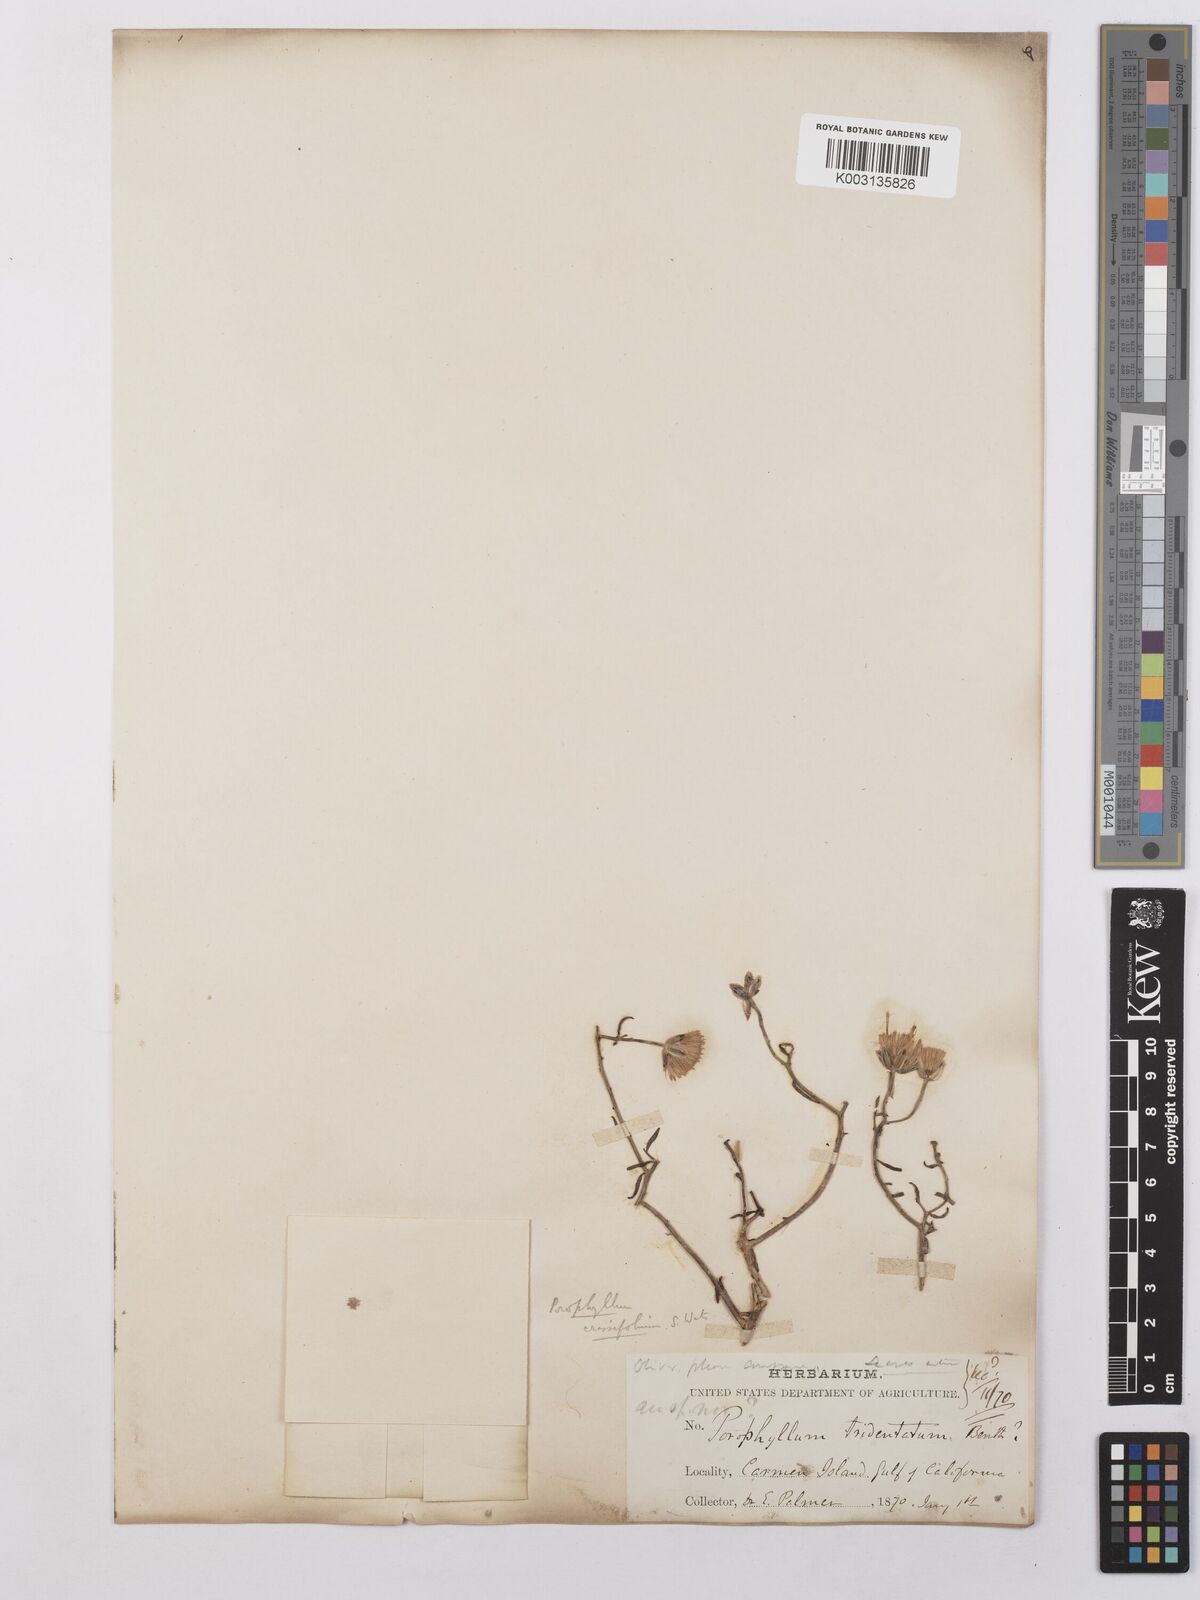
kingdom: Plantae
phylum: Tracheophyta
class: Magnoliopsida
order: Asterales
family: Asteraceae
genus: Bajacalia
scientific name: Bajacalia crassifolia
